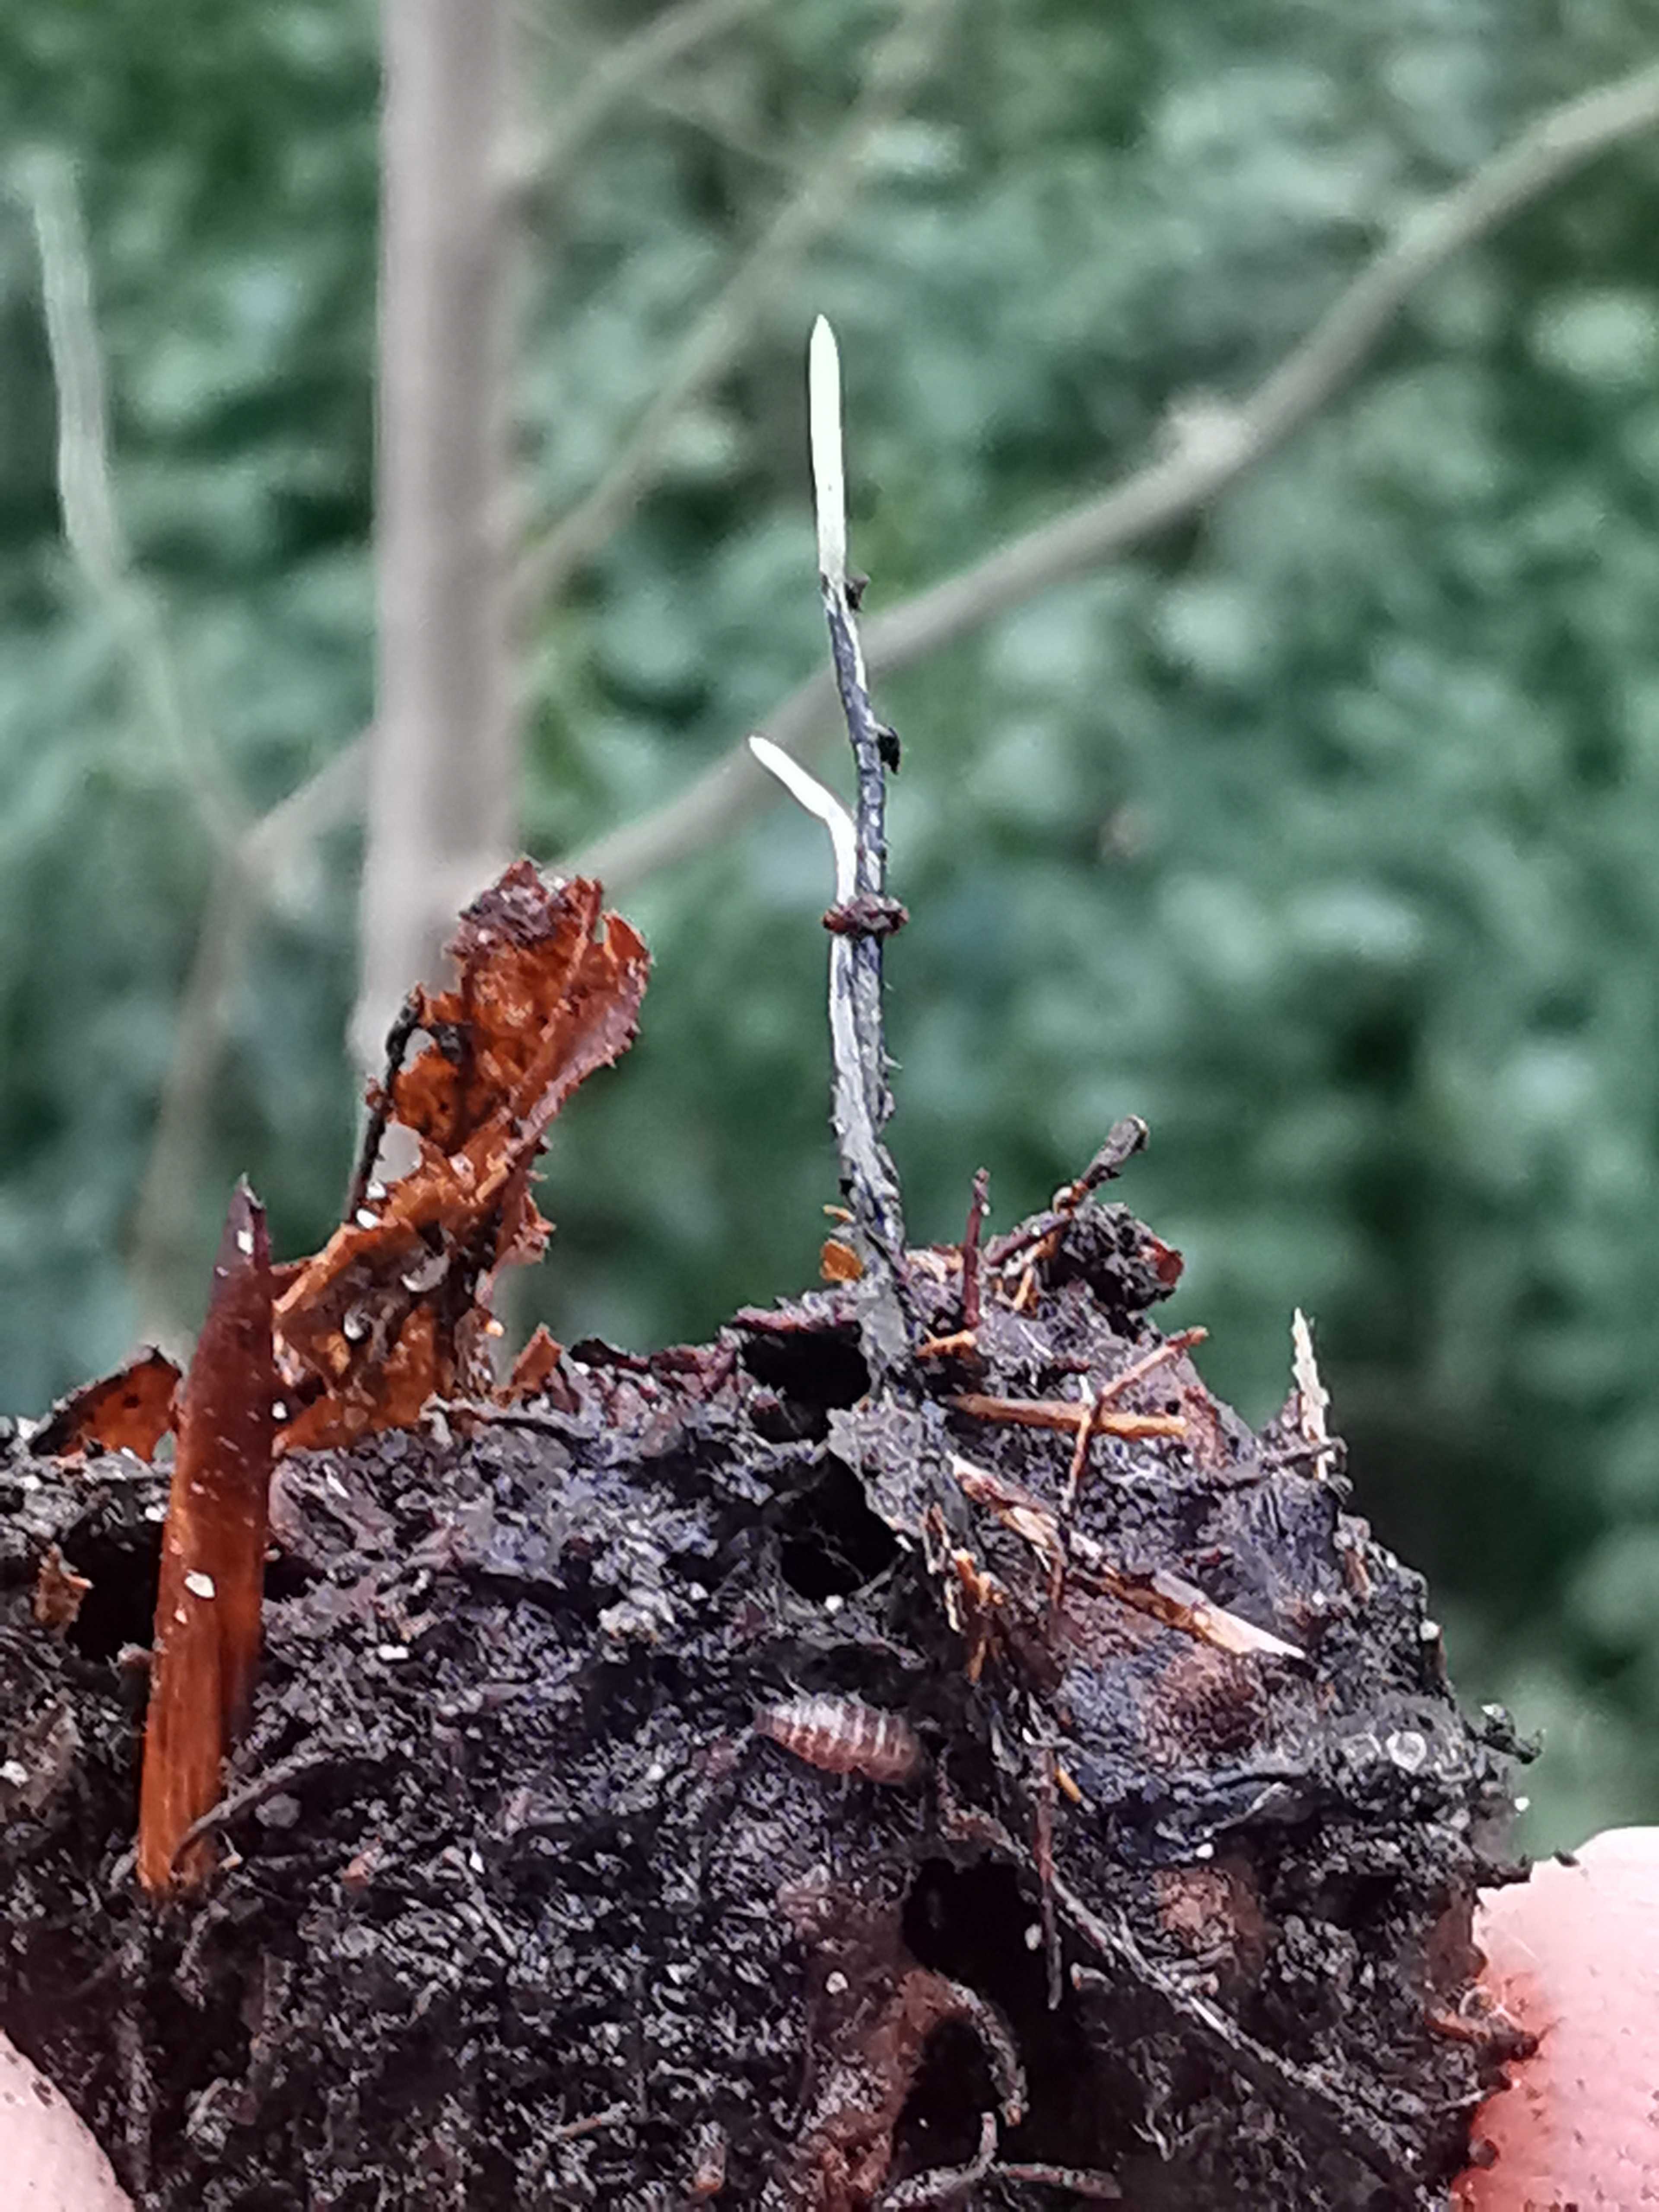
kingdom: Fungi
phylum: Ascomycota
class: Sordariomycetes
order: Xylariales
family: Xylariaceae
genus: Xylaria
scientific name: Xylaria carpophila
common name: bogskål-stødsvamp
